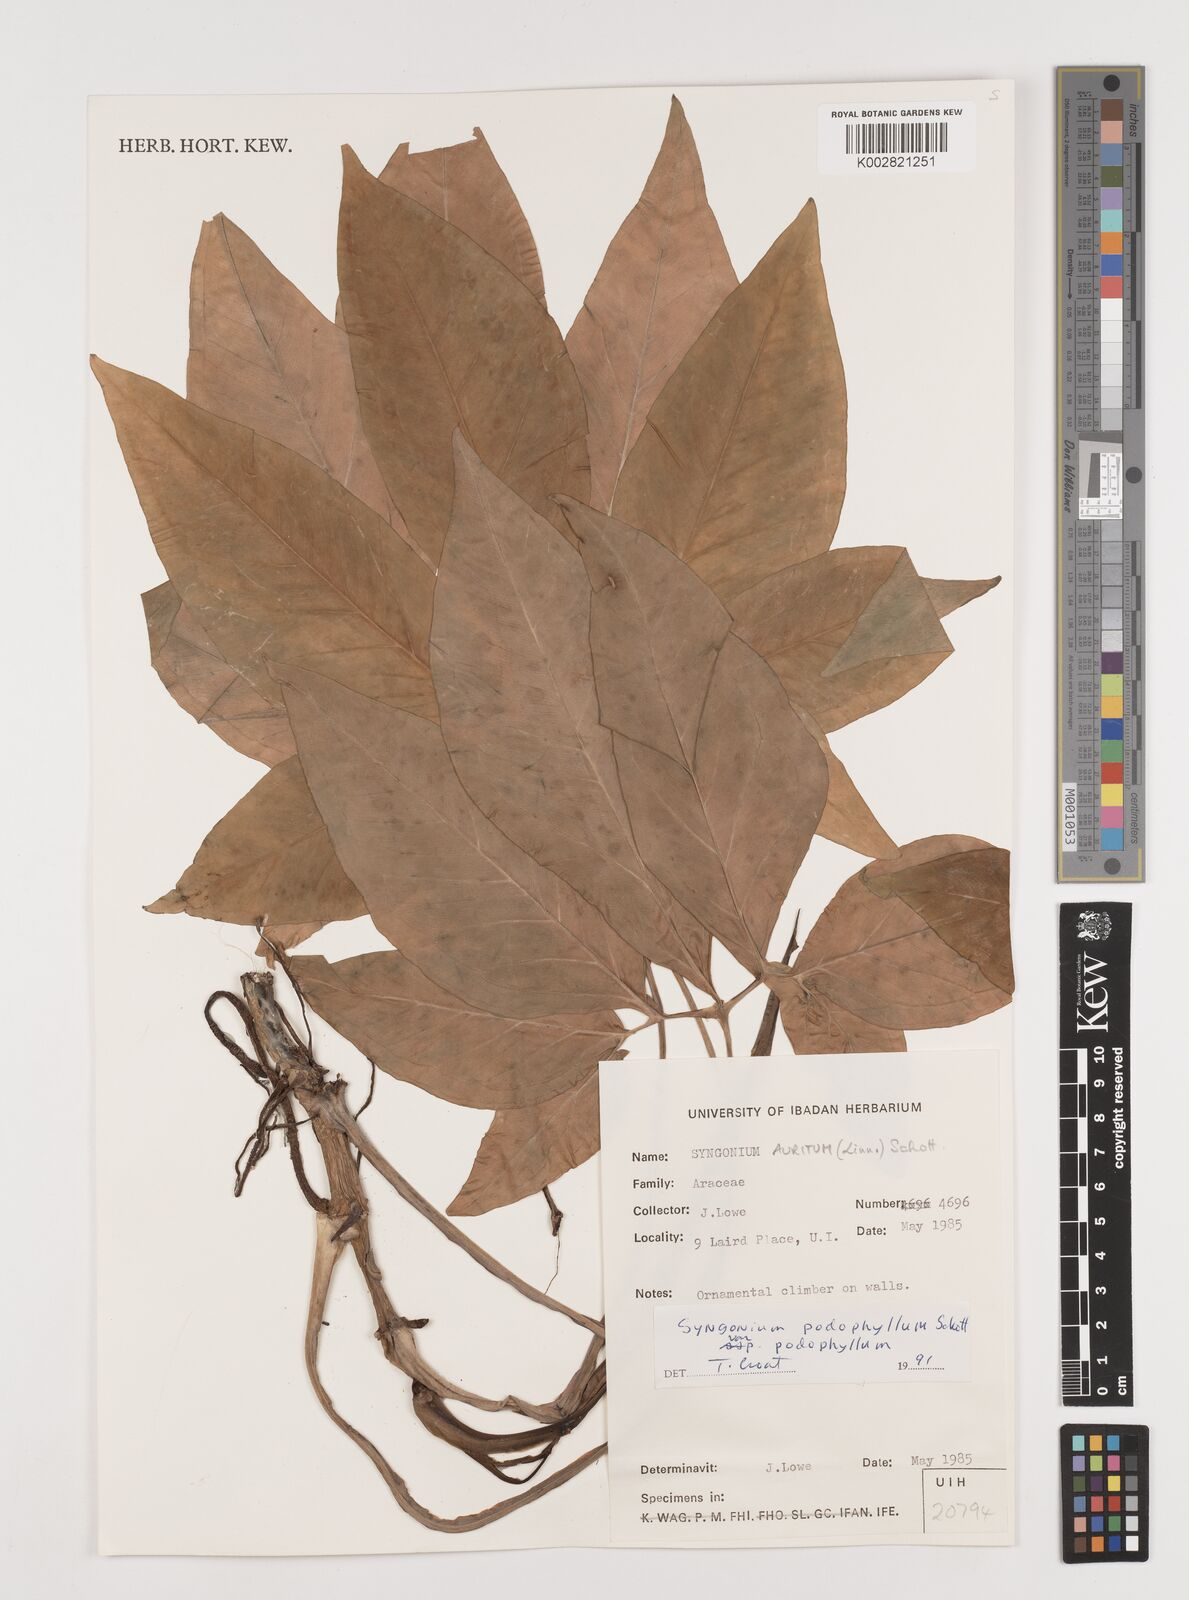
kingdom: Plantae
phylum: Tracheophyta
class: Liliopsida
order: Alismatales
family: Araceae
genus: Syngonium
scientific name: Syngonium podophyllum
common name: American evergreen
